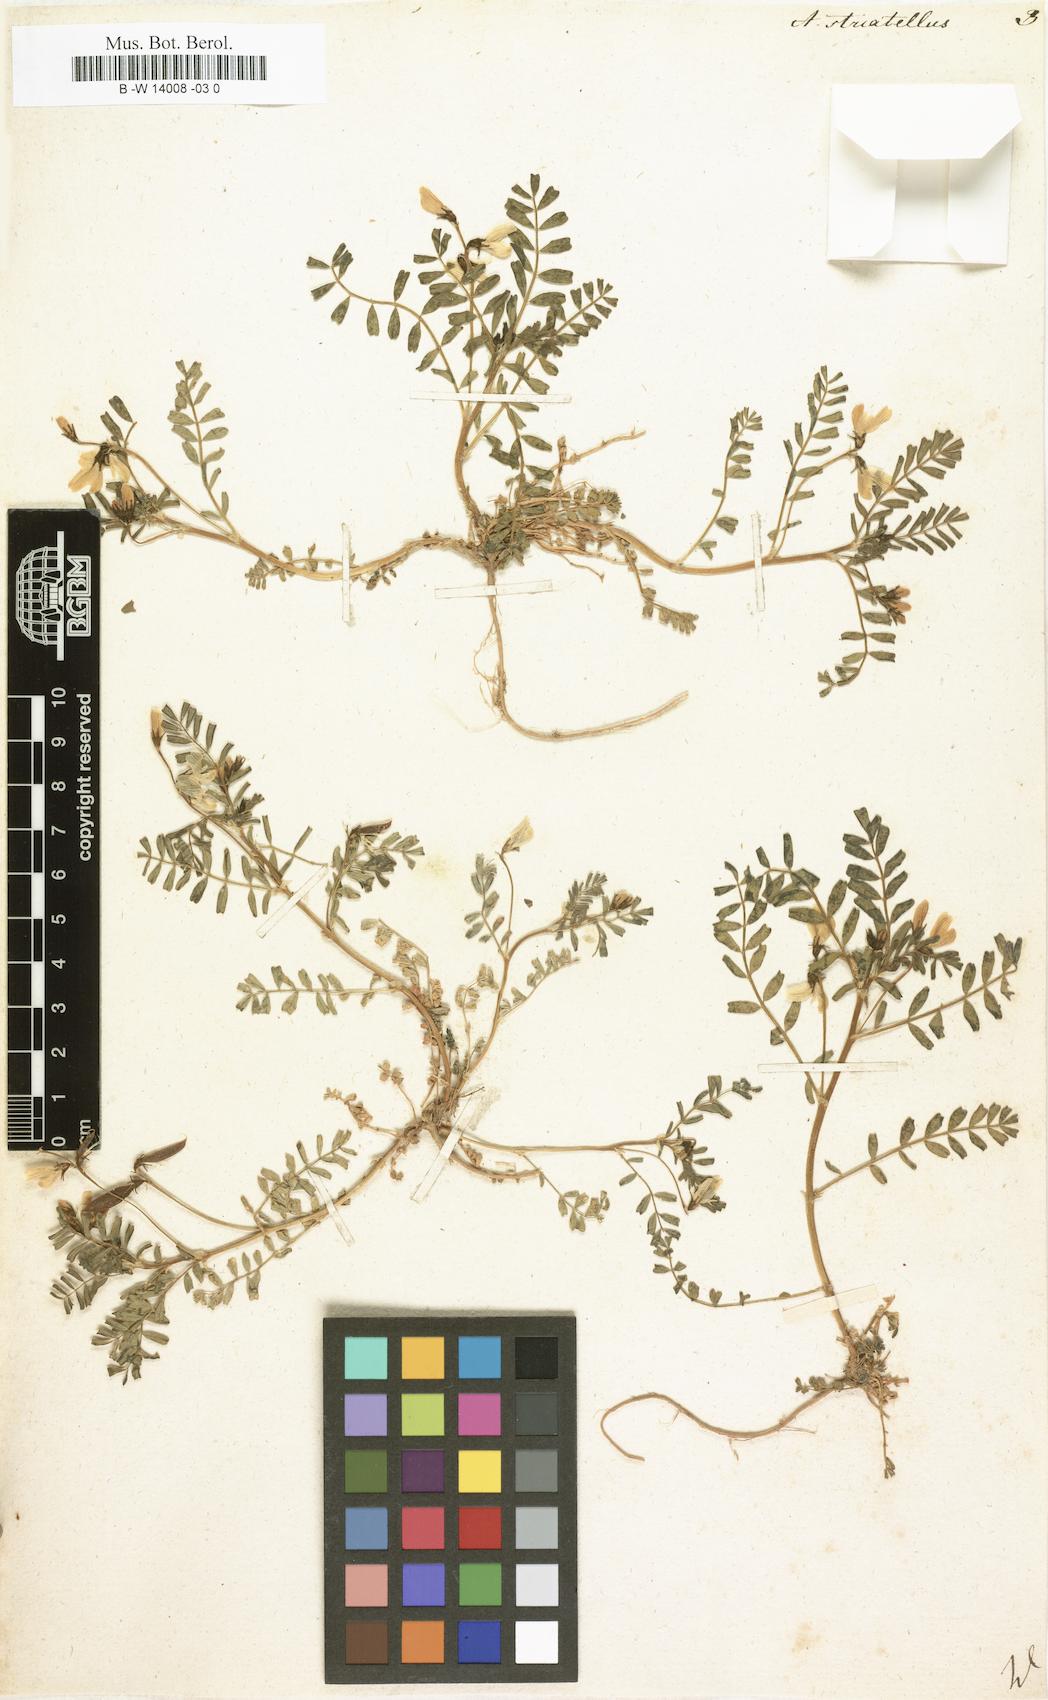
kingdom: Plantae
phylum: Tracheophyta
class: Magnoliopsida
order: Fabales
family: Fabaceae
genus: Astragalus
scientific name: Astragalus guttatus
